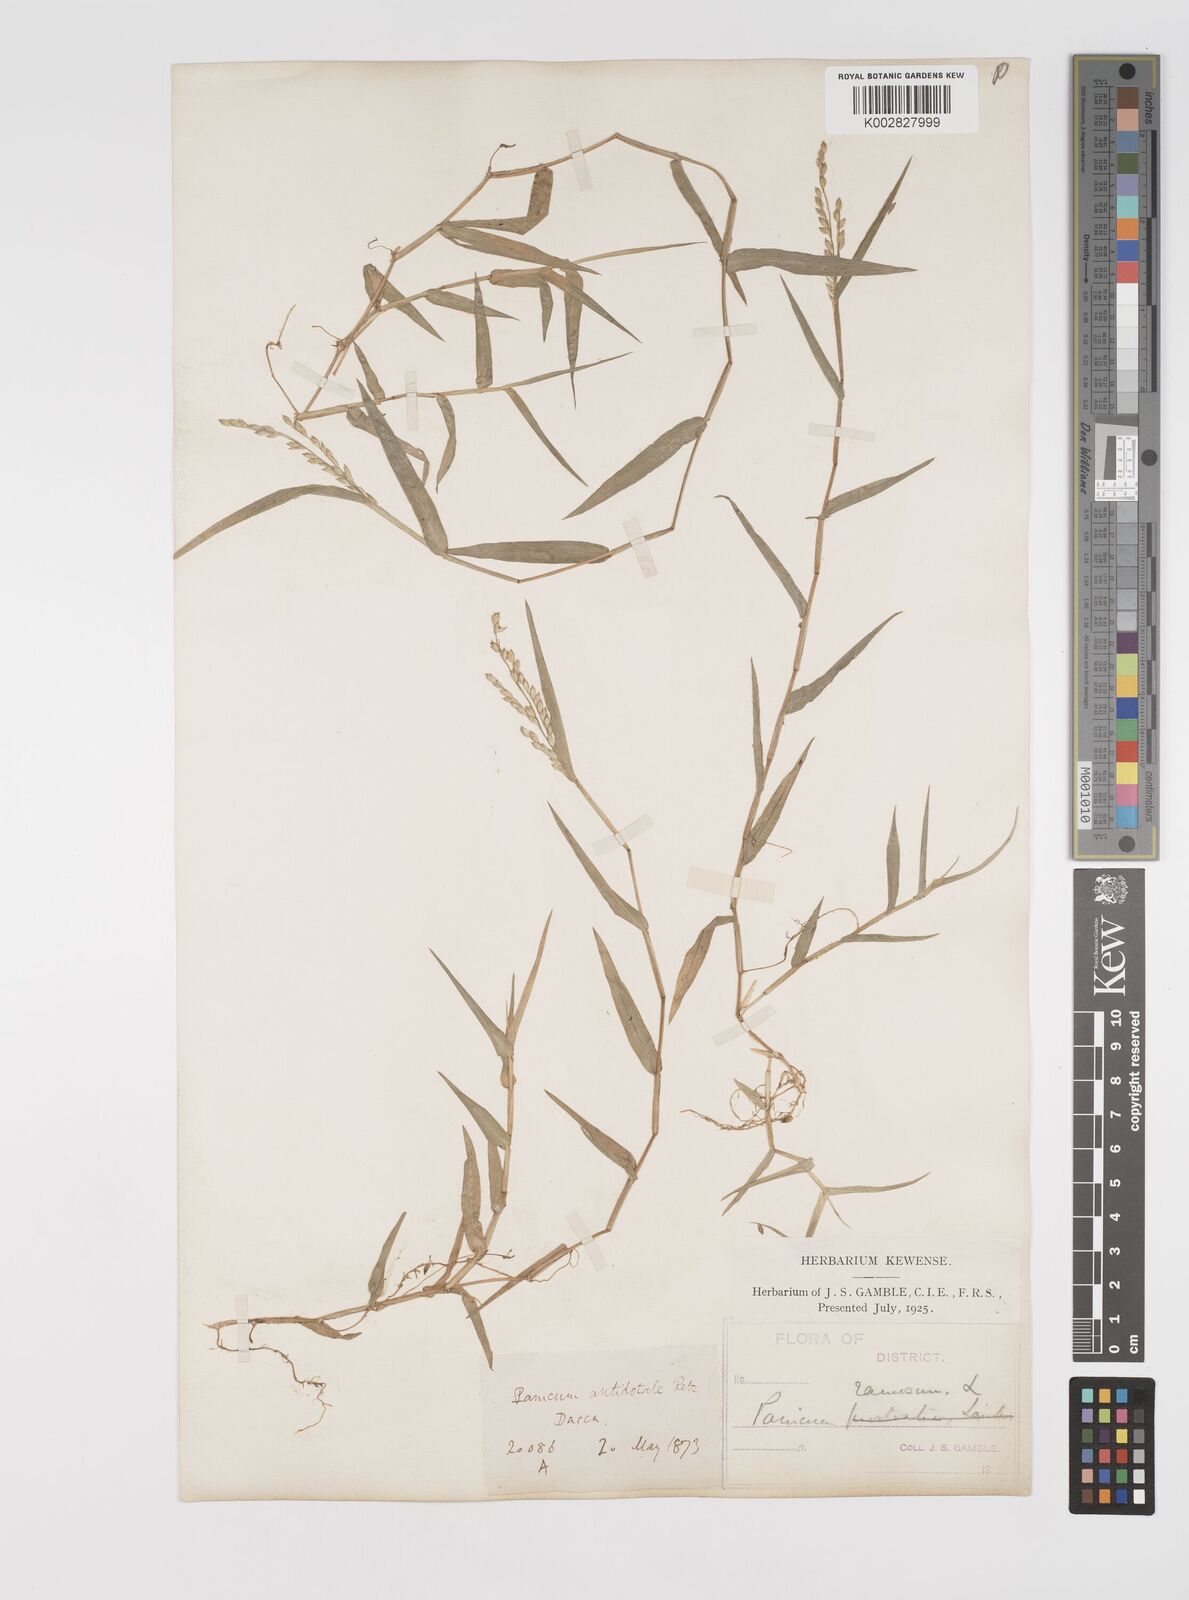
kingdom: Plantae
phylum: Tracheophyta
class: Liliopsida
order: Poales
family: Poaceae
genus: Acroceras
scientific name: Acroceras munroanum
